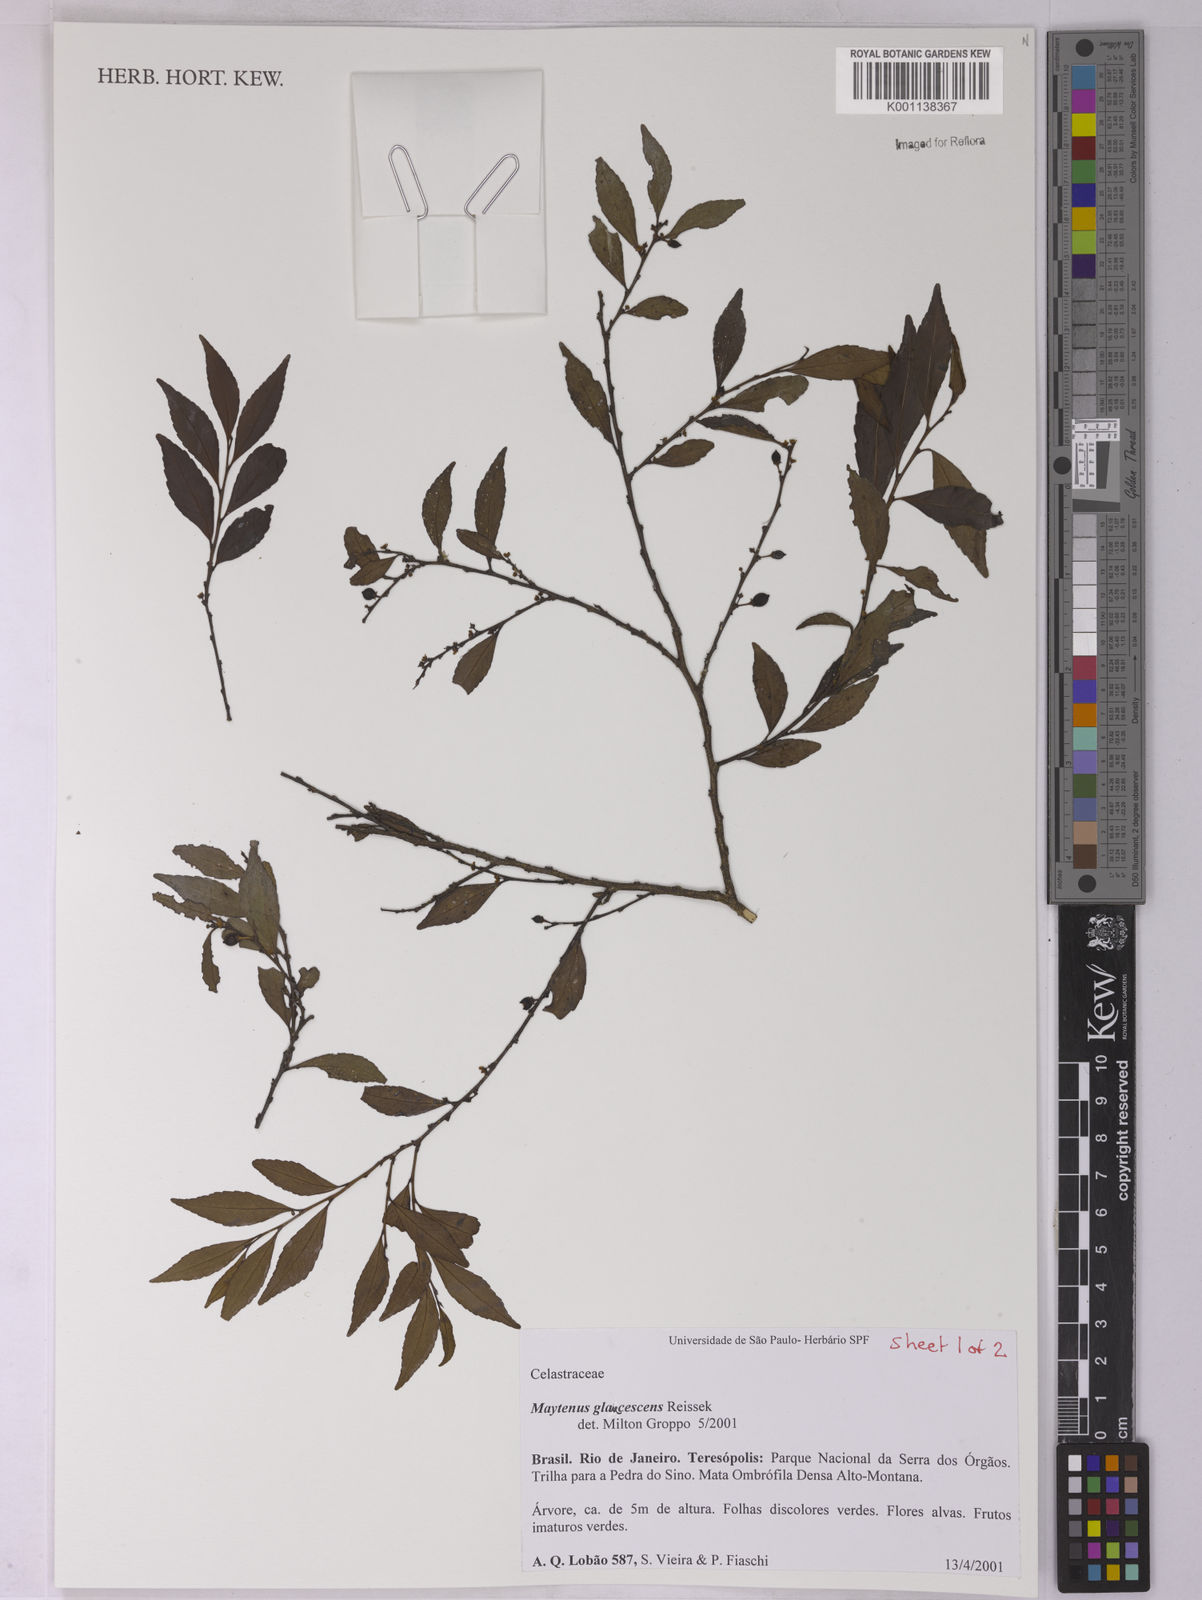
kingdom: Plantae
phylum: Tracheophyta
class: Magnoliopsida
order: Celastrales
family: Celastraceae
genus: Monteverdia
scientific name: Monteverdia glaucescens
